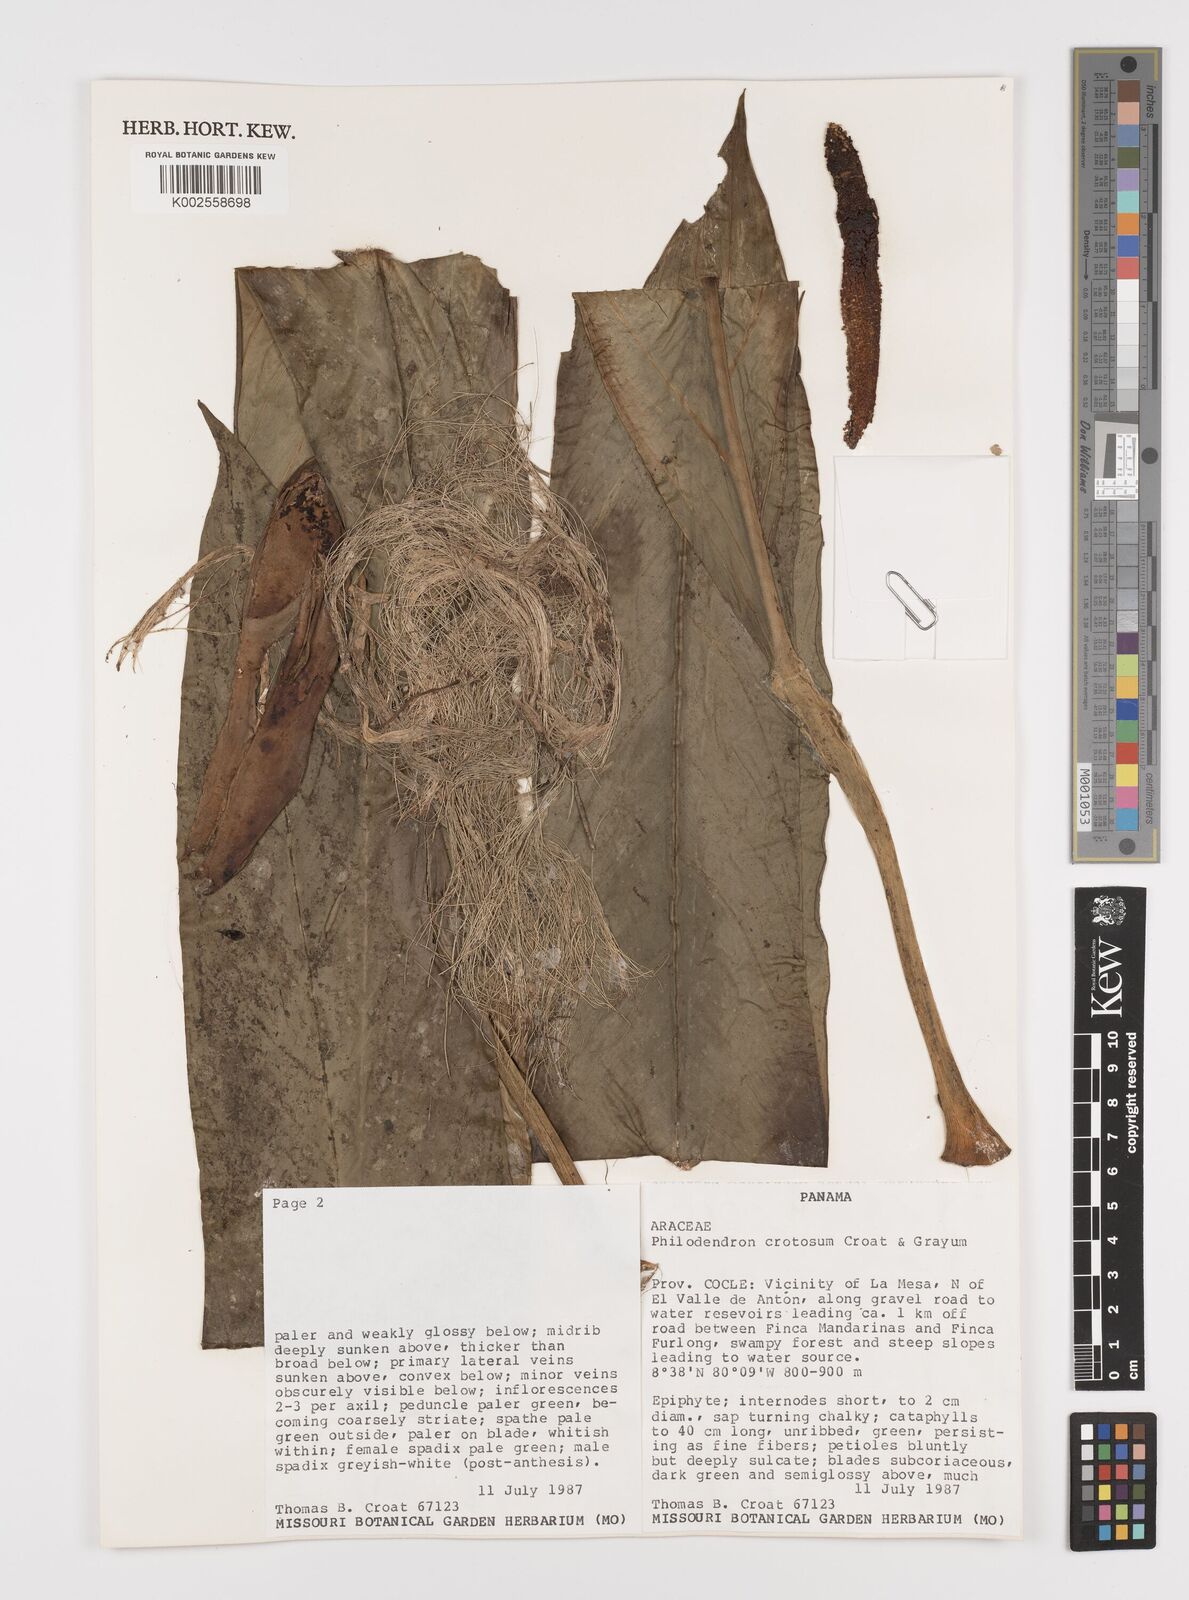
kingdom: Plantae
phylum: Tracheophyta
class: Liliopsida
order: Alismatales
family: Araceae
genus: Philodendron
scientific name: Philodendron cretosum
